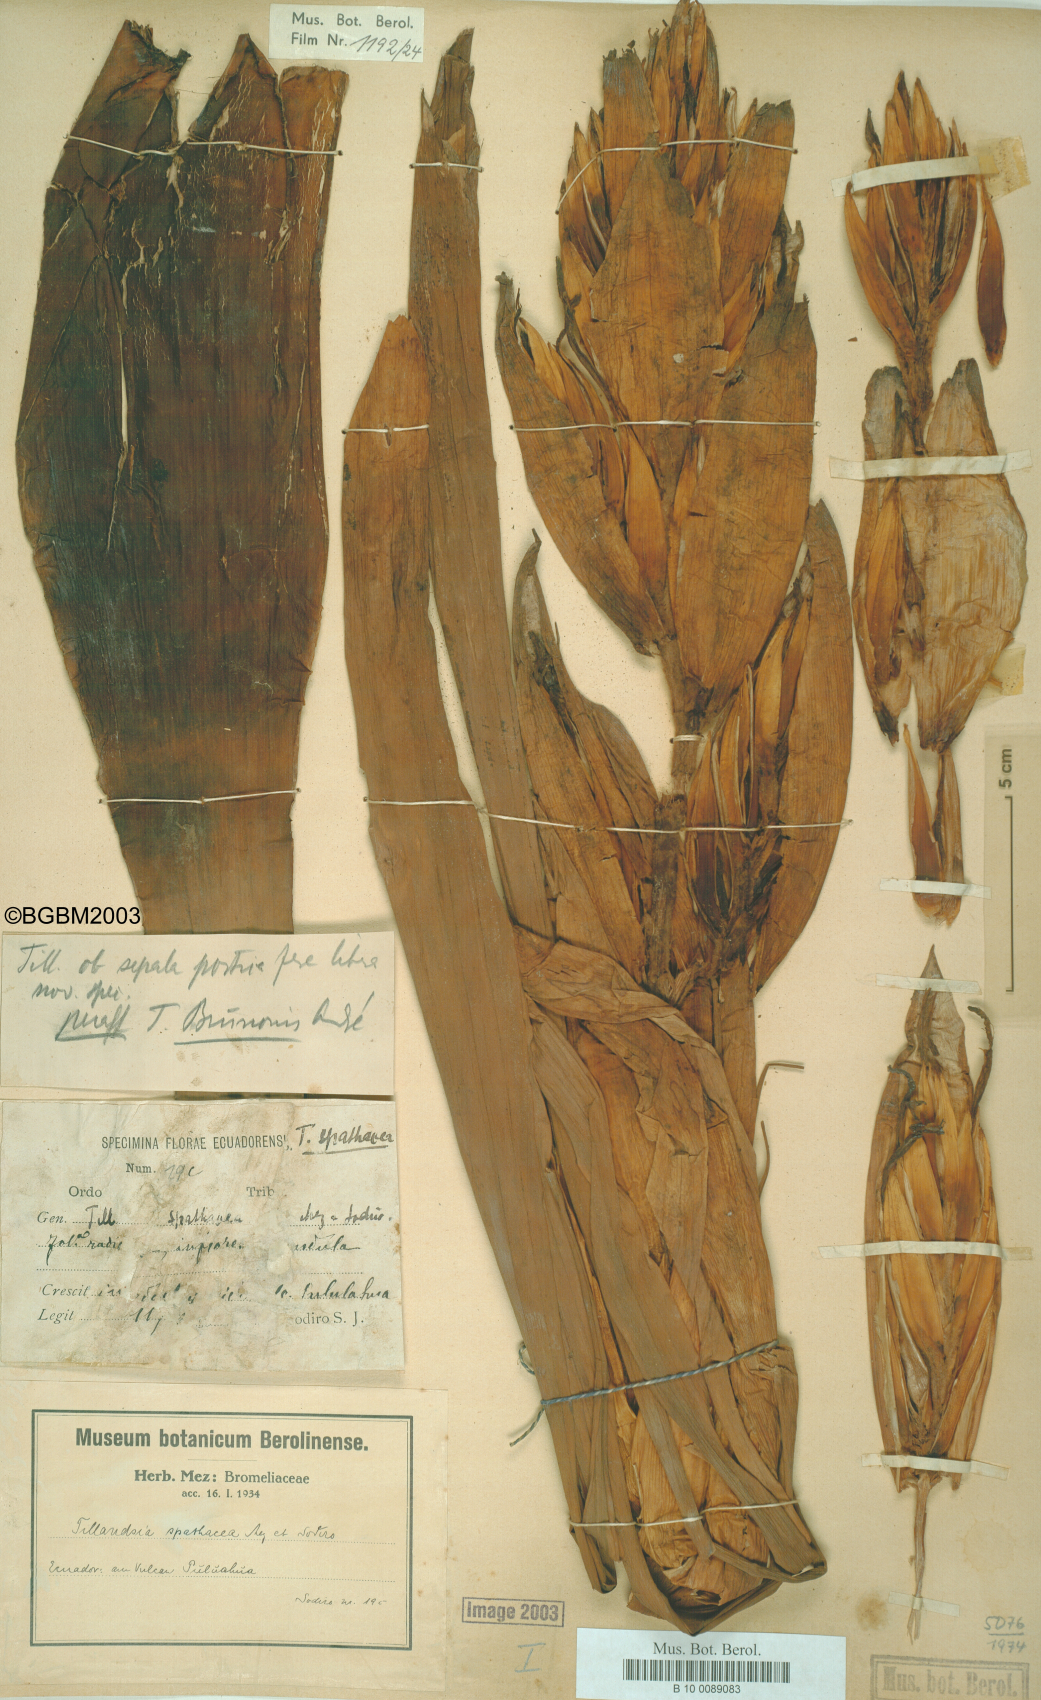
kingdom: Plantae
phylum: Tracheophyta
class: Liliopsida
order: Poales
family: Bromeliaceae
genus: Tillandsia
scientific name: Tillandsia spathacea
